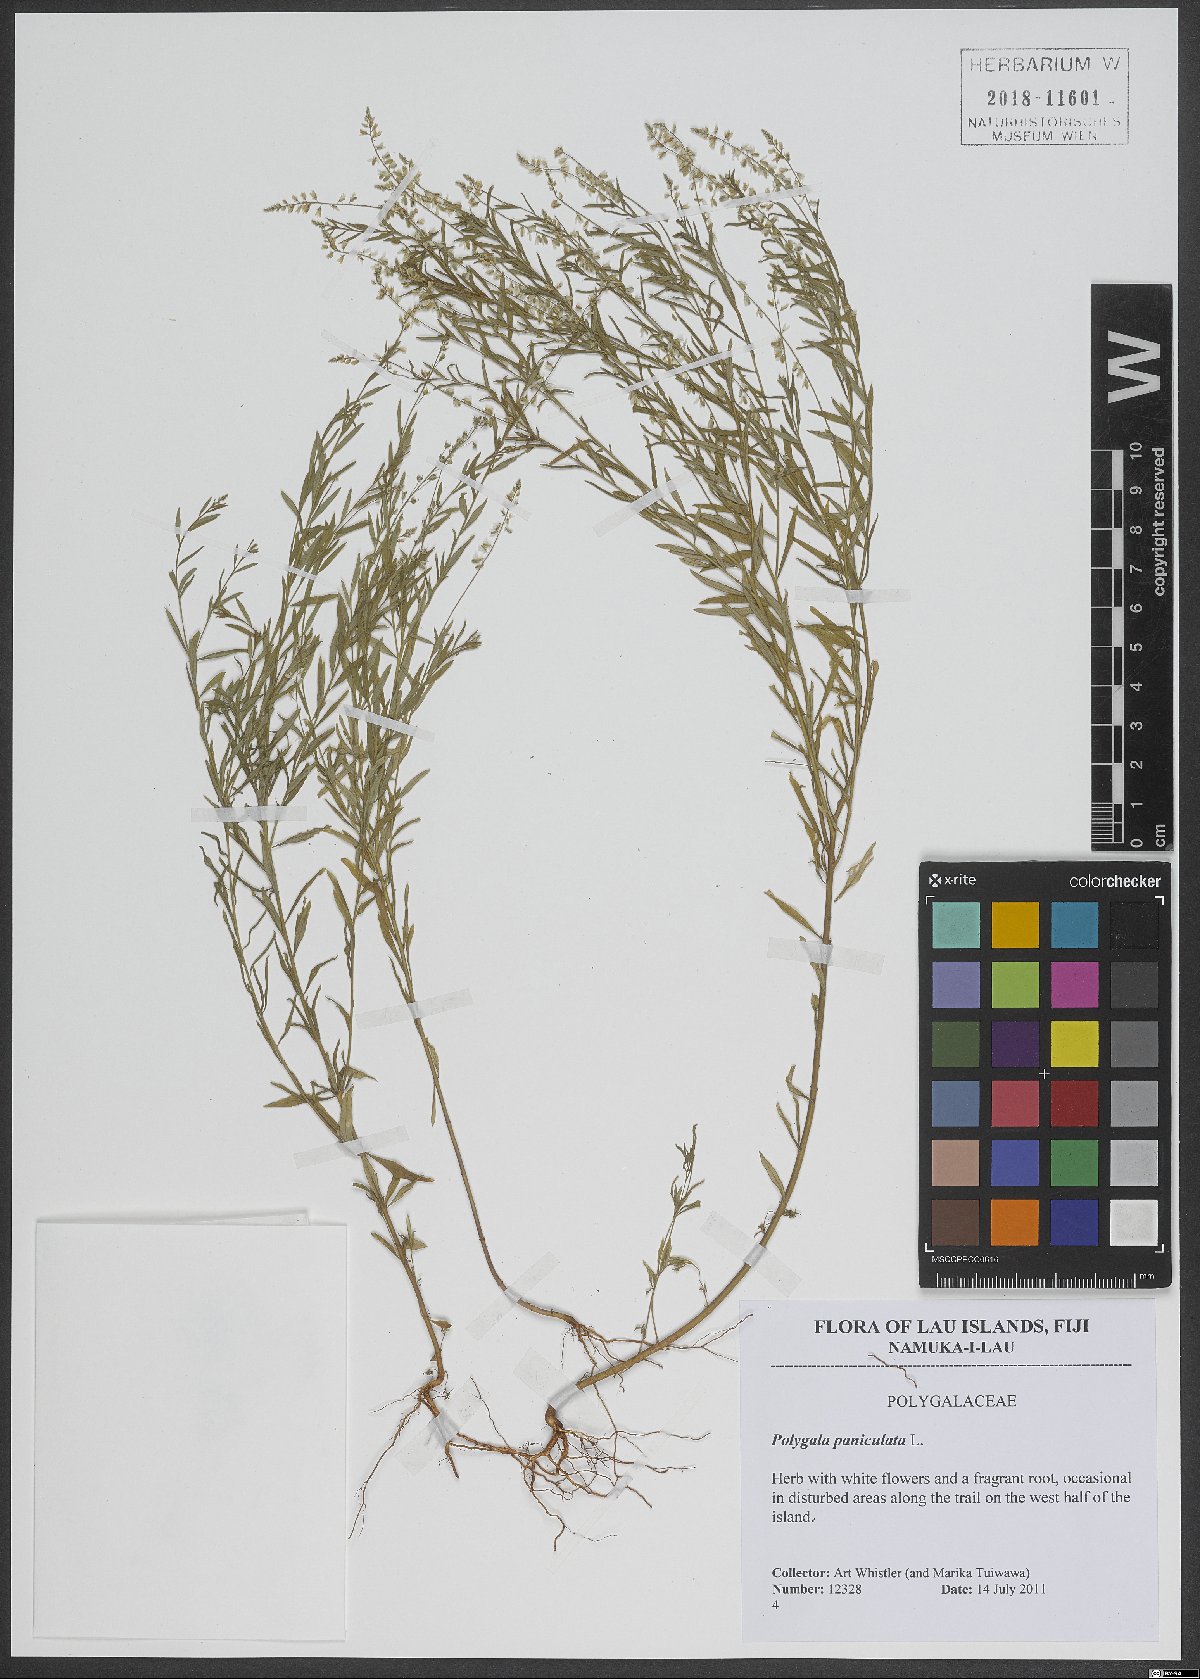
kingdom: Plantae
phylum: Tracheophyta
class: Magnoliopsida
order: Fabales
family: Polygalaceae
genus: Polygala
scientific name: Polygala paniculata
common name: Orosne
